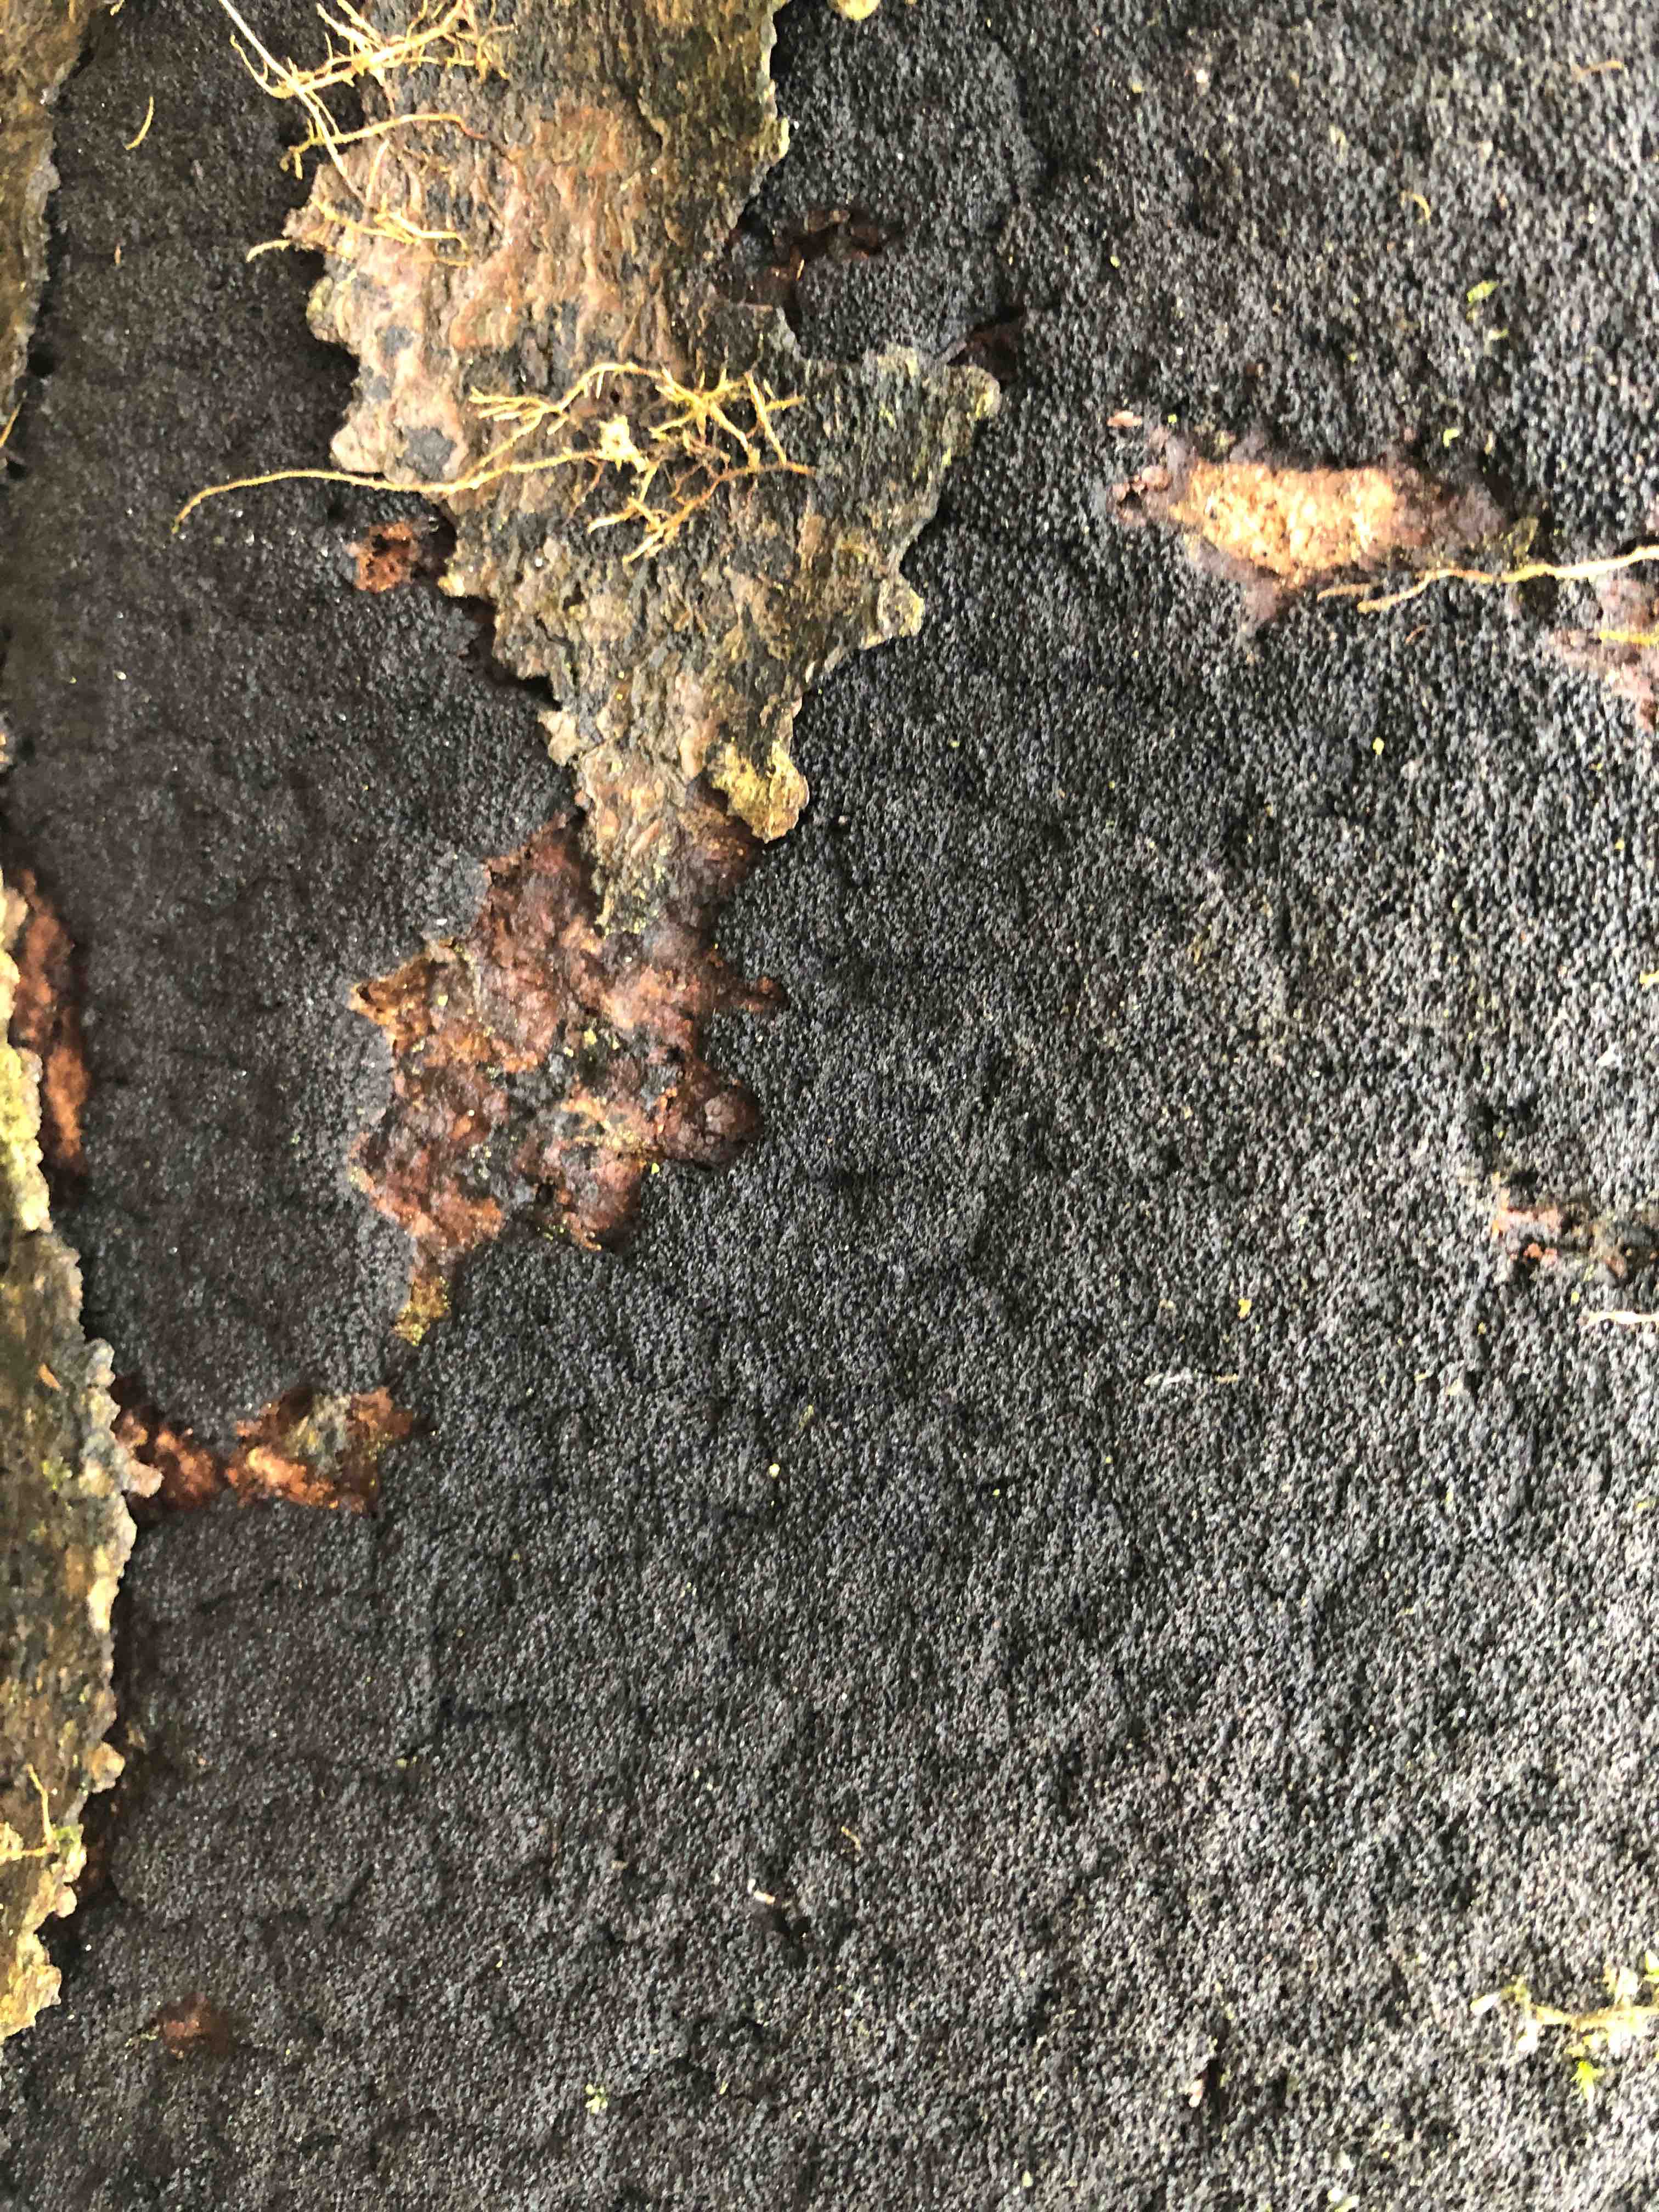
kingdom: Fungi
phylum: Ascomycota
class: Sordariomycetes
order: Xylariales
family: Diatrypaceae
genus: Eutypa
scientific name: Eutypa spinosa
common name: grov kulskorpe
